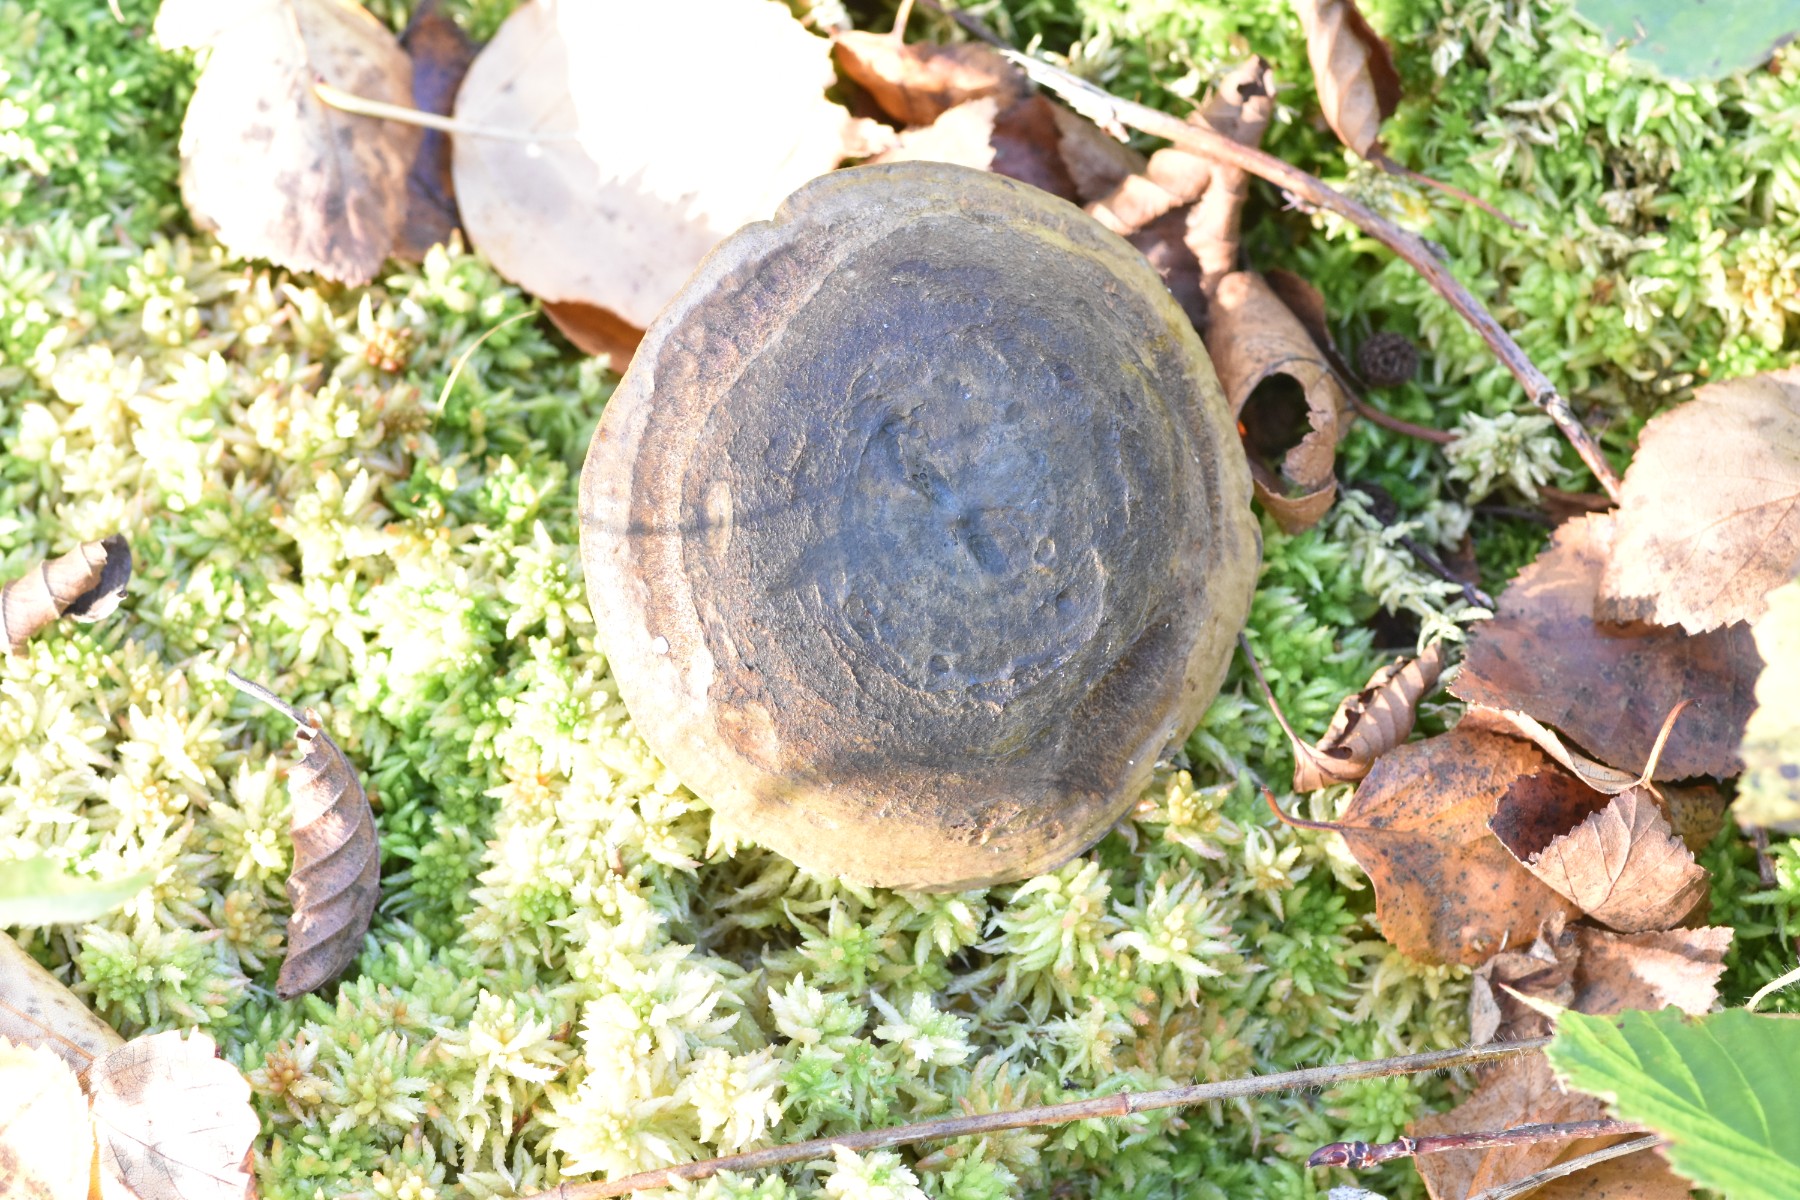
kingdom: Fungi
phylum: Basidiomycota
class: Agaricomycetes
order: Russulales
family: Russulaceae
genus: Lactarius
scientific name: Lactarius necator
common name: manddraber-mælkehat
